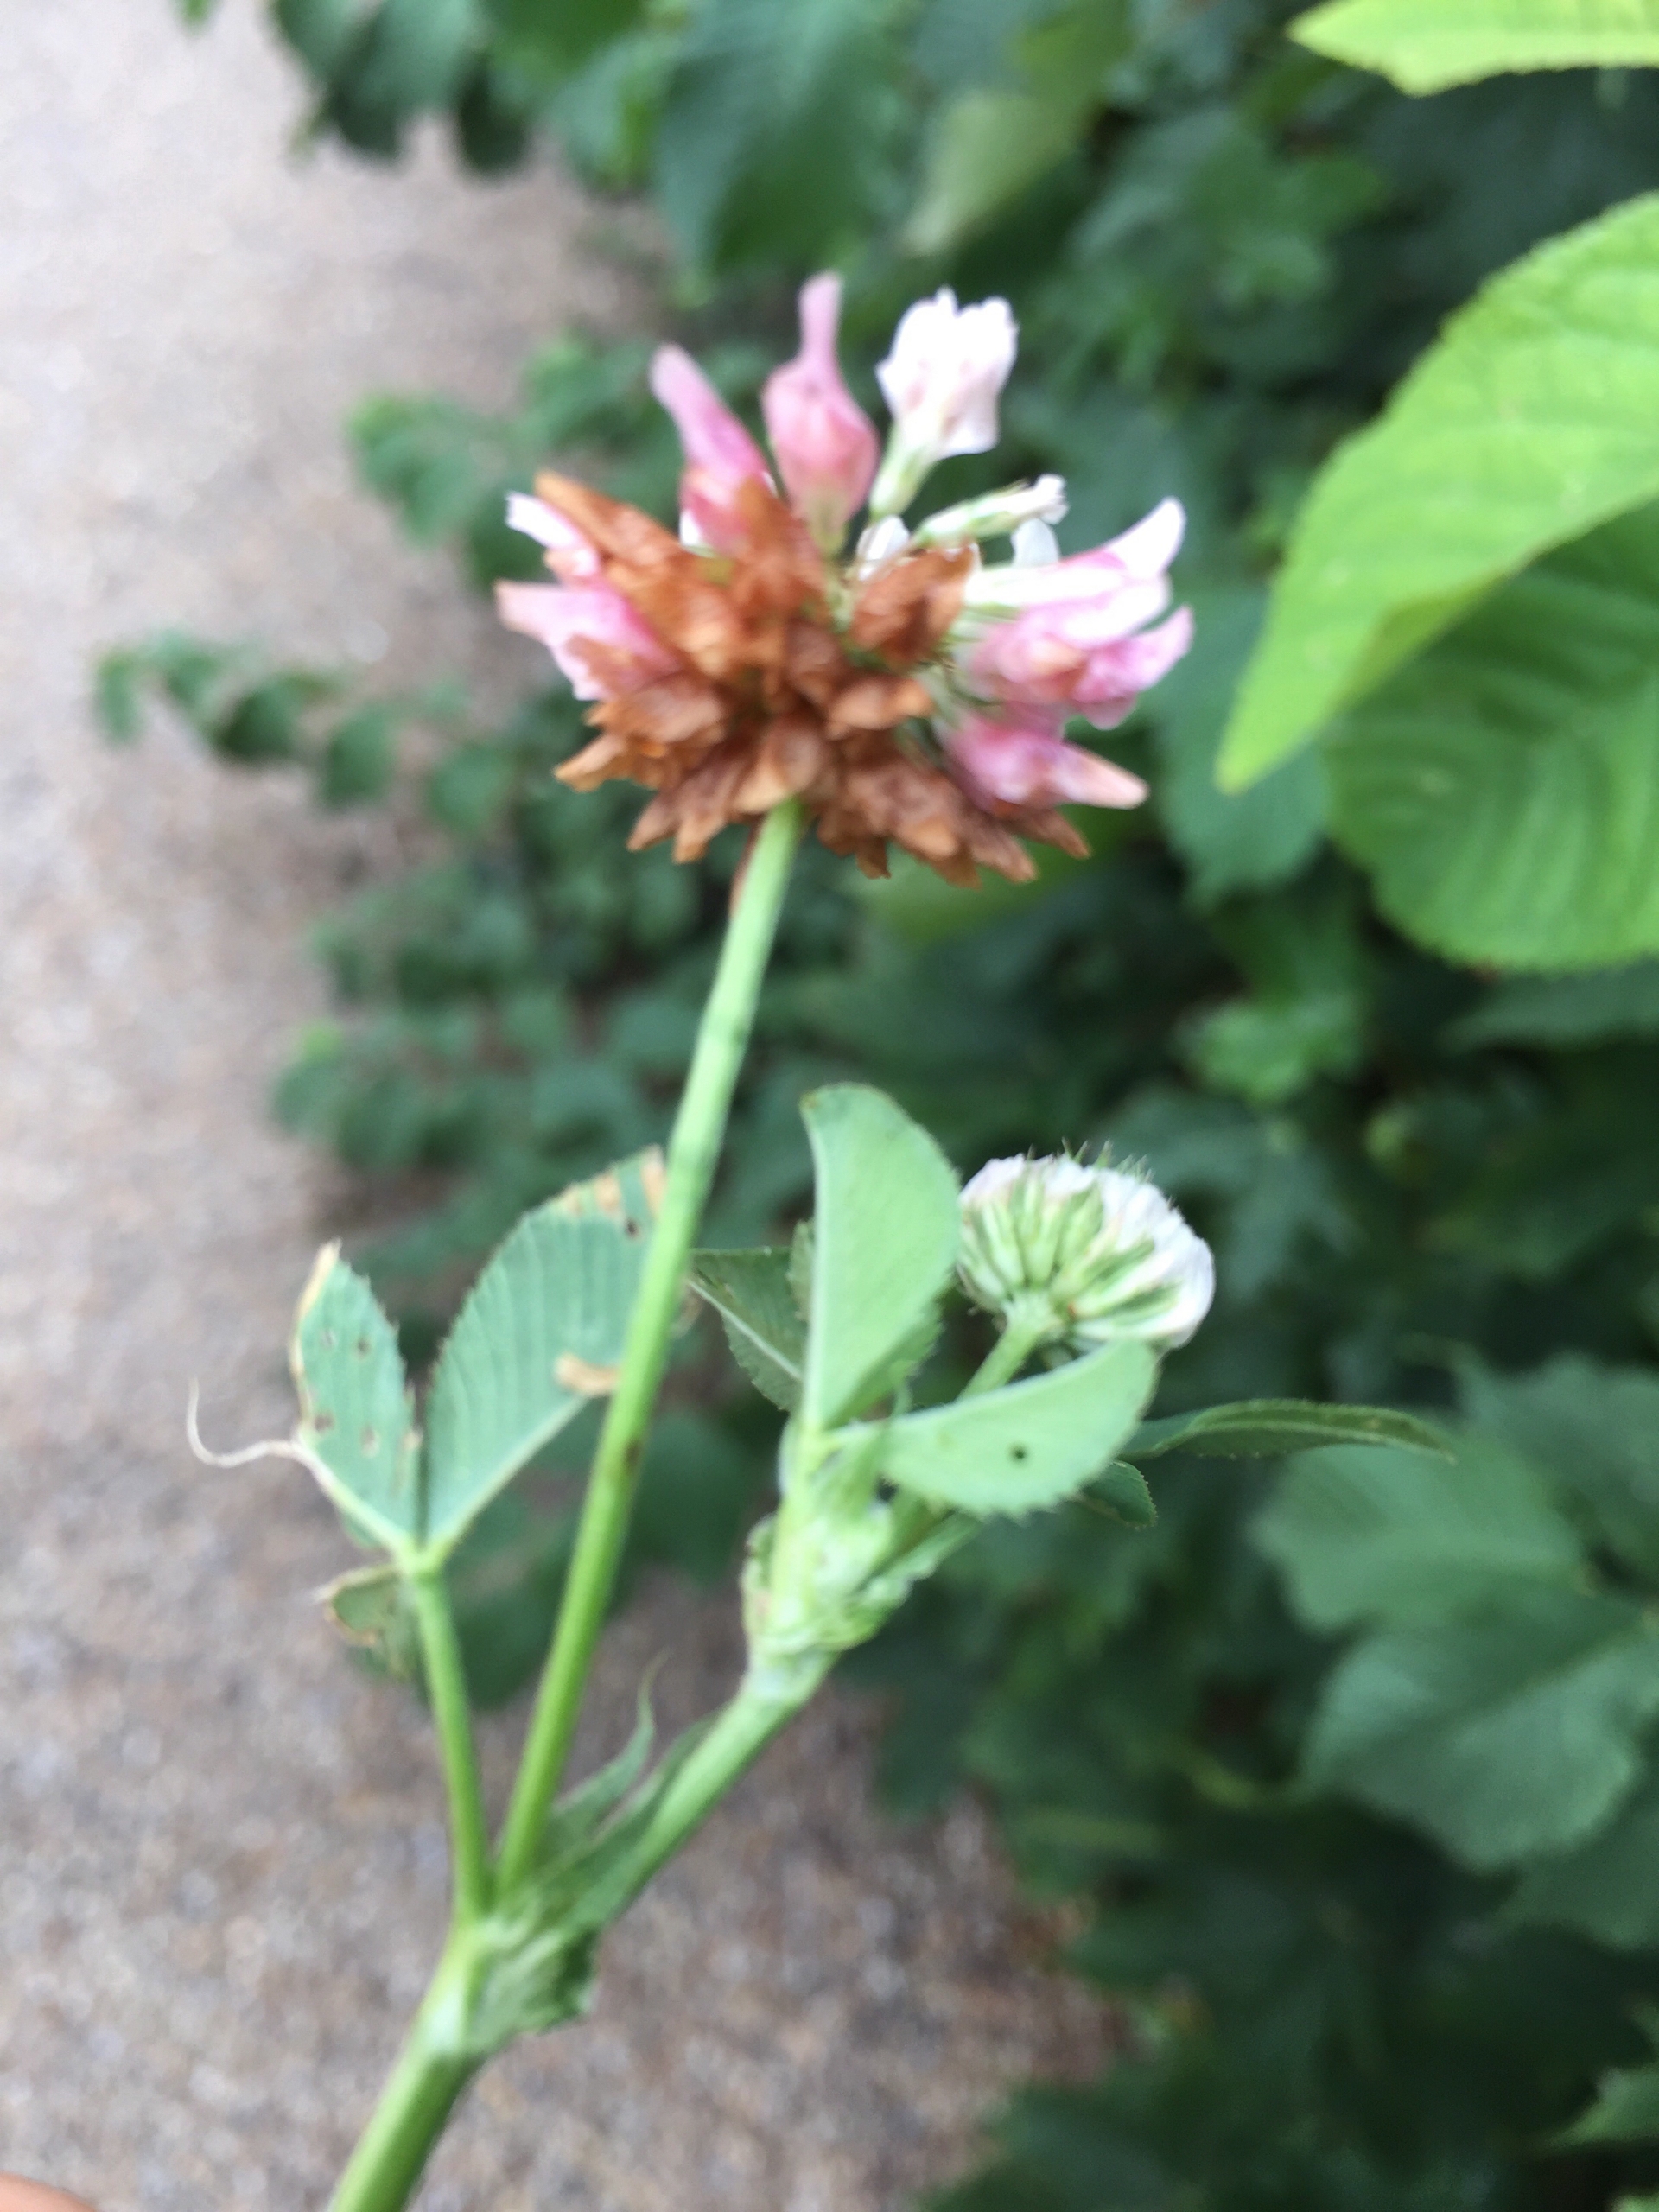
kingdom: Plantae
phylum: Tracheophyta
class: Magnoliopsida
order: Fabales
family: Fabaceae
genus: Trifolium
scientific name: Trifolium hybridum
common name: Alsike-kløver
